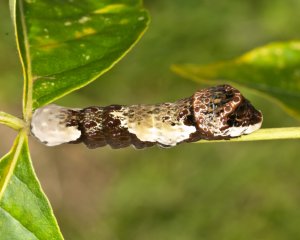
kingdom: Animalia
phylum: Arthropoda
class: Insecta
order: Lepidoptera
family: Papilionidae
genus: Papilio
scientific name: Papilio cresphontes
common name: Eastern Giant Swallowtail
